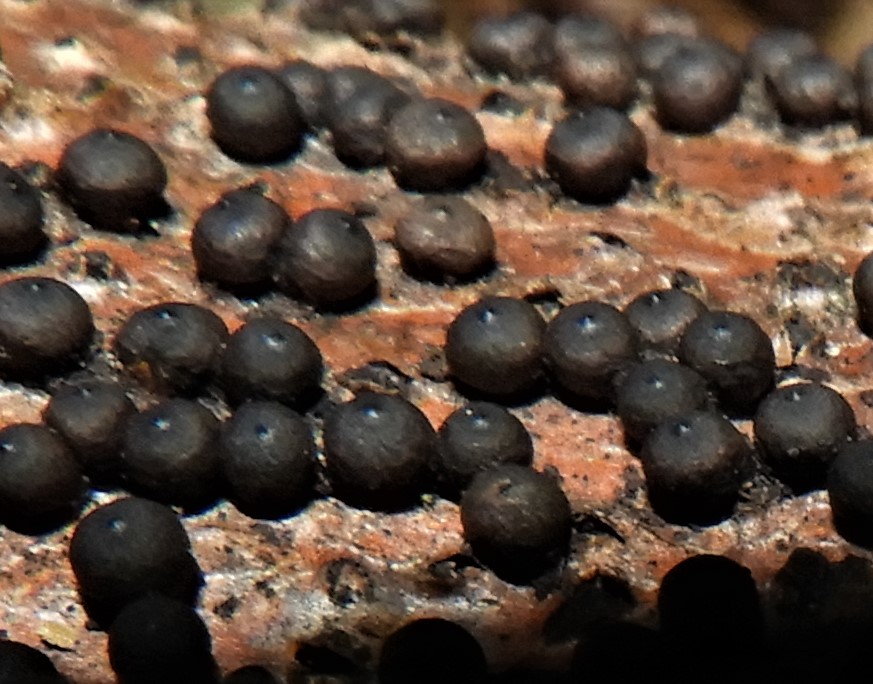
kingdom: Fungi
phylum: Ascomycota
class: Sordariomycetes
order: Xylariales
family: Xylariaceae
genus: Rosellinia
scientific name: Rosellinia
